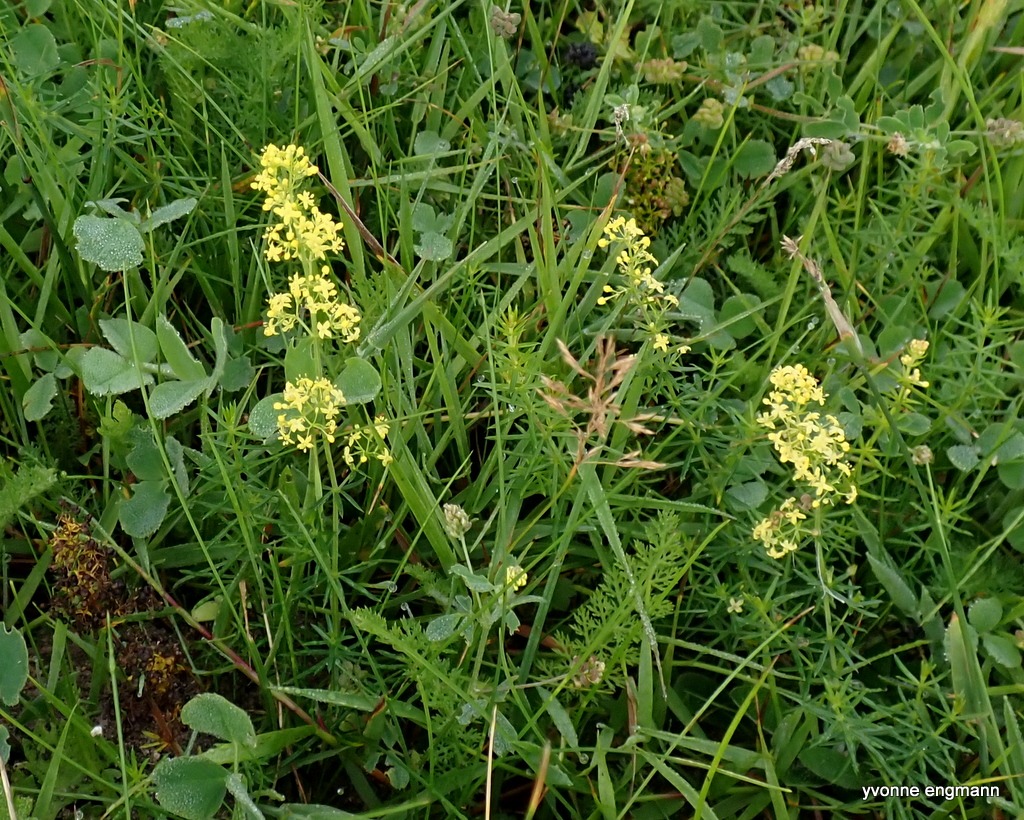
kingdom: Plantae
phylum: Tracheophyta
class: Magnoliopsida
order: Gentianales
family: Rubiaceae
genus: Galium
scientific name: Galium
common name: Hvidgul snerre
